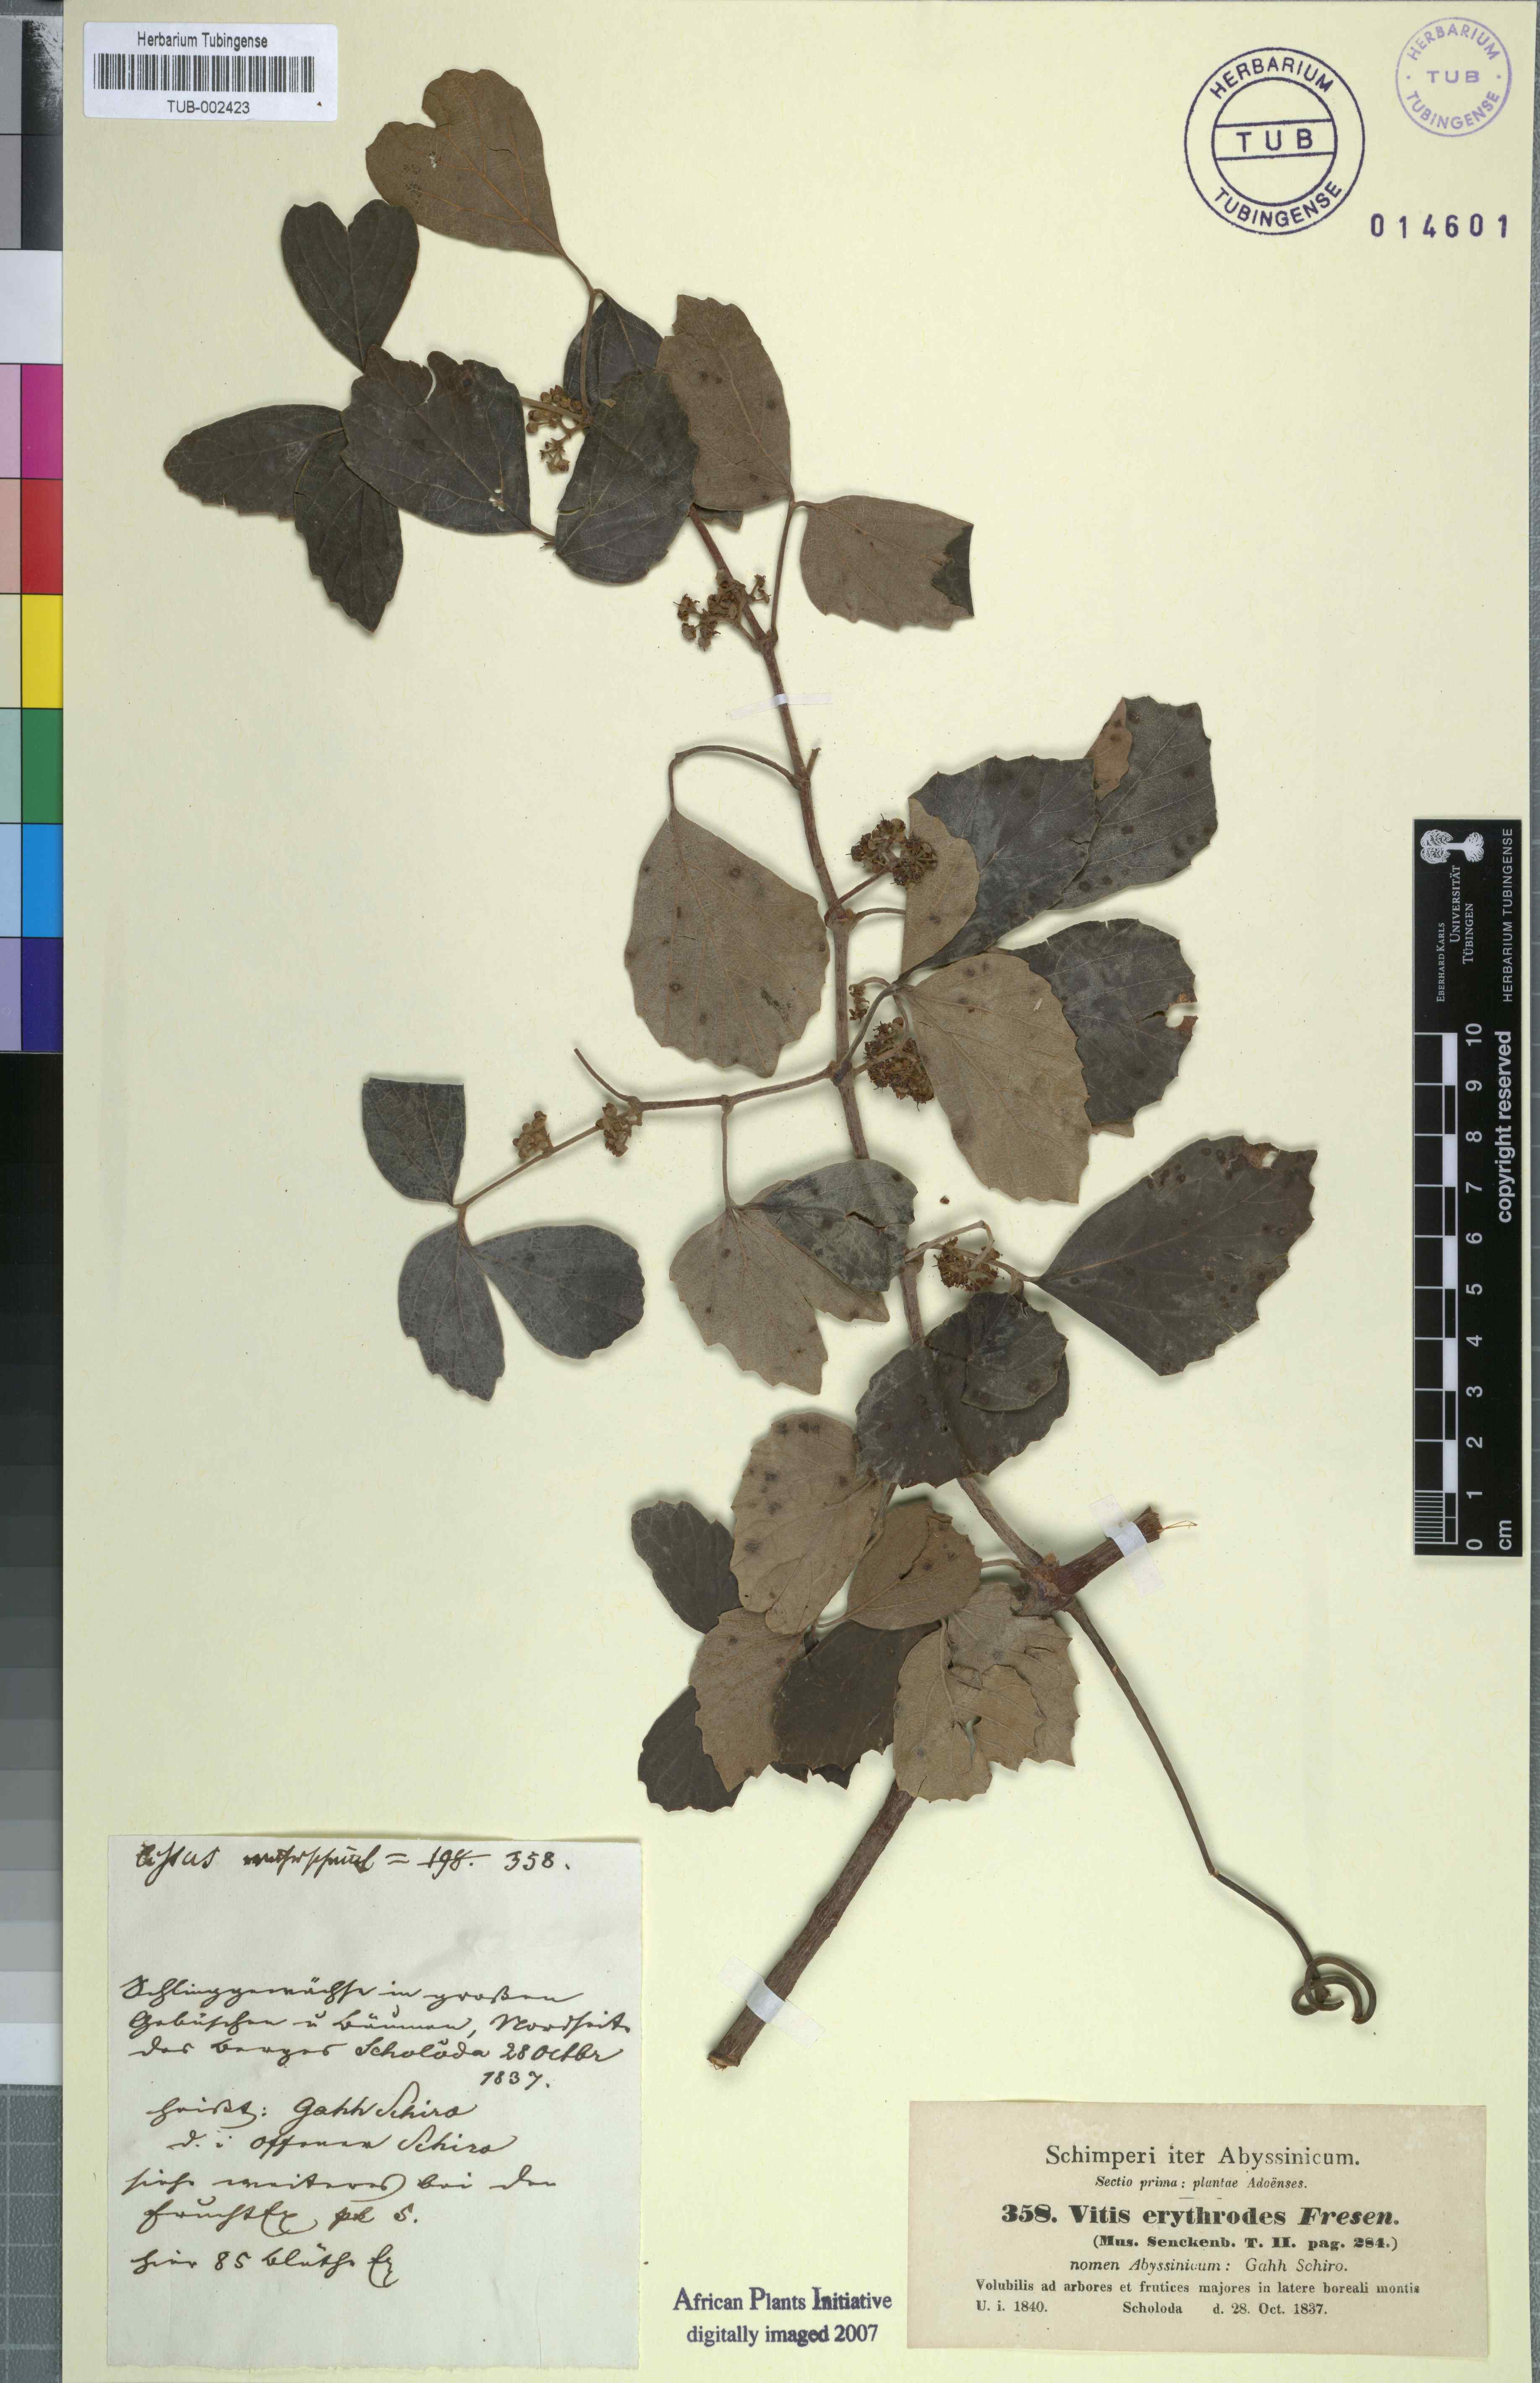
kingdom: Plantae
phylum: Tracheophyta
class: Magnoliopsida
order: Vitales
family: Vitaceae
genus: Rhoicissus
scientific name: Rhoicissus tridentata
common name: Common forest grape
